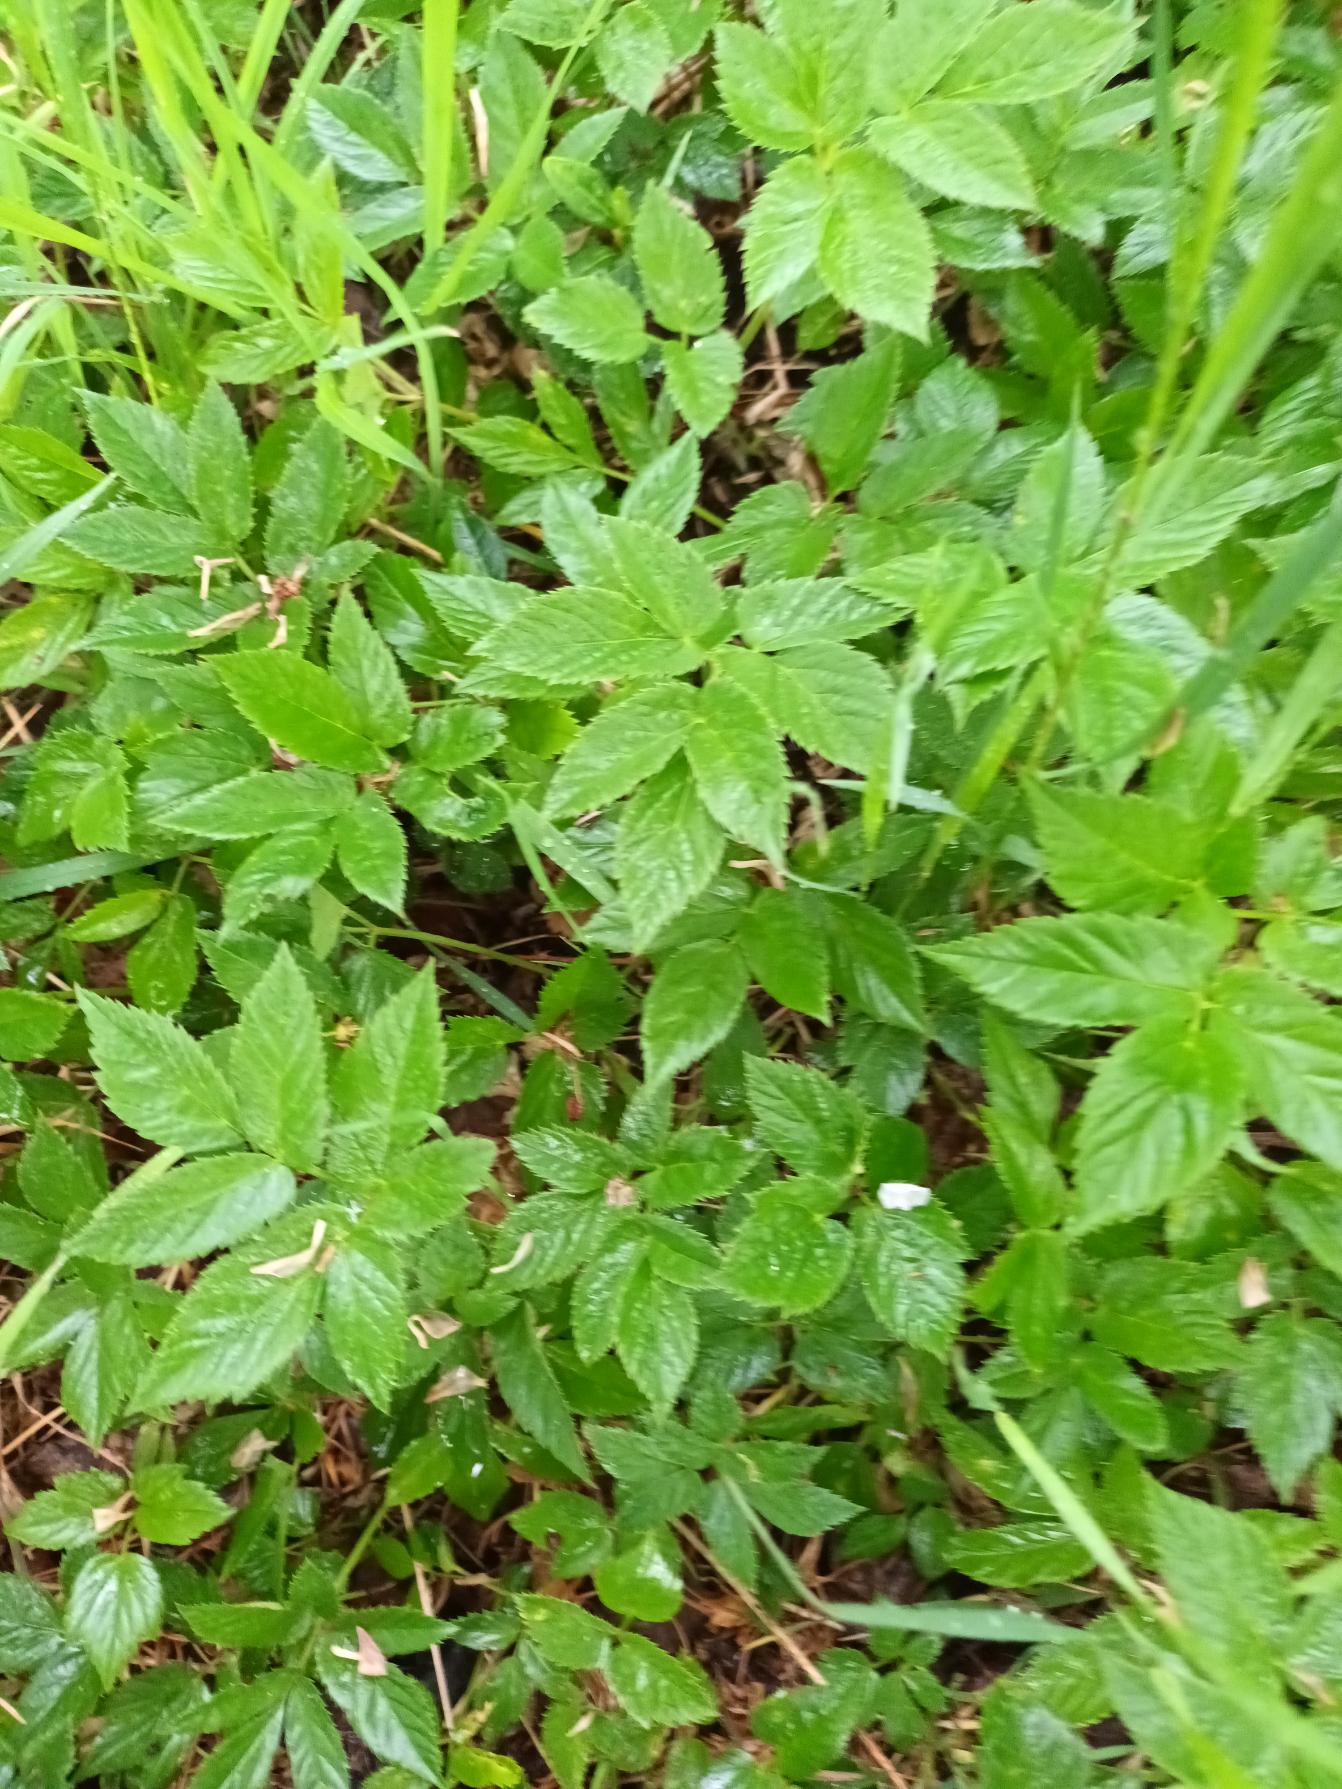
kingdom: Plantae
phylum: Tracheophyta
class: Magnoliopsida
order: Apiales
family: Apiaceae
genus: Aegopodium
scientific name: Aegopodium podagraria
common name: Skvalderkål
